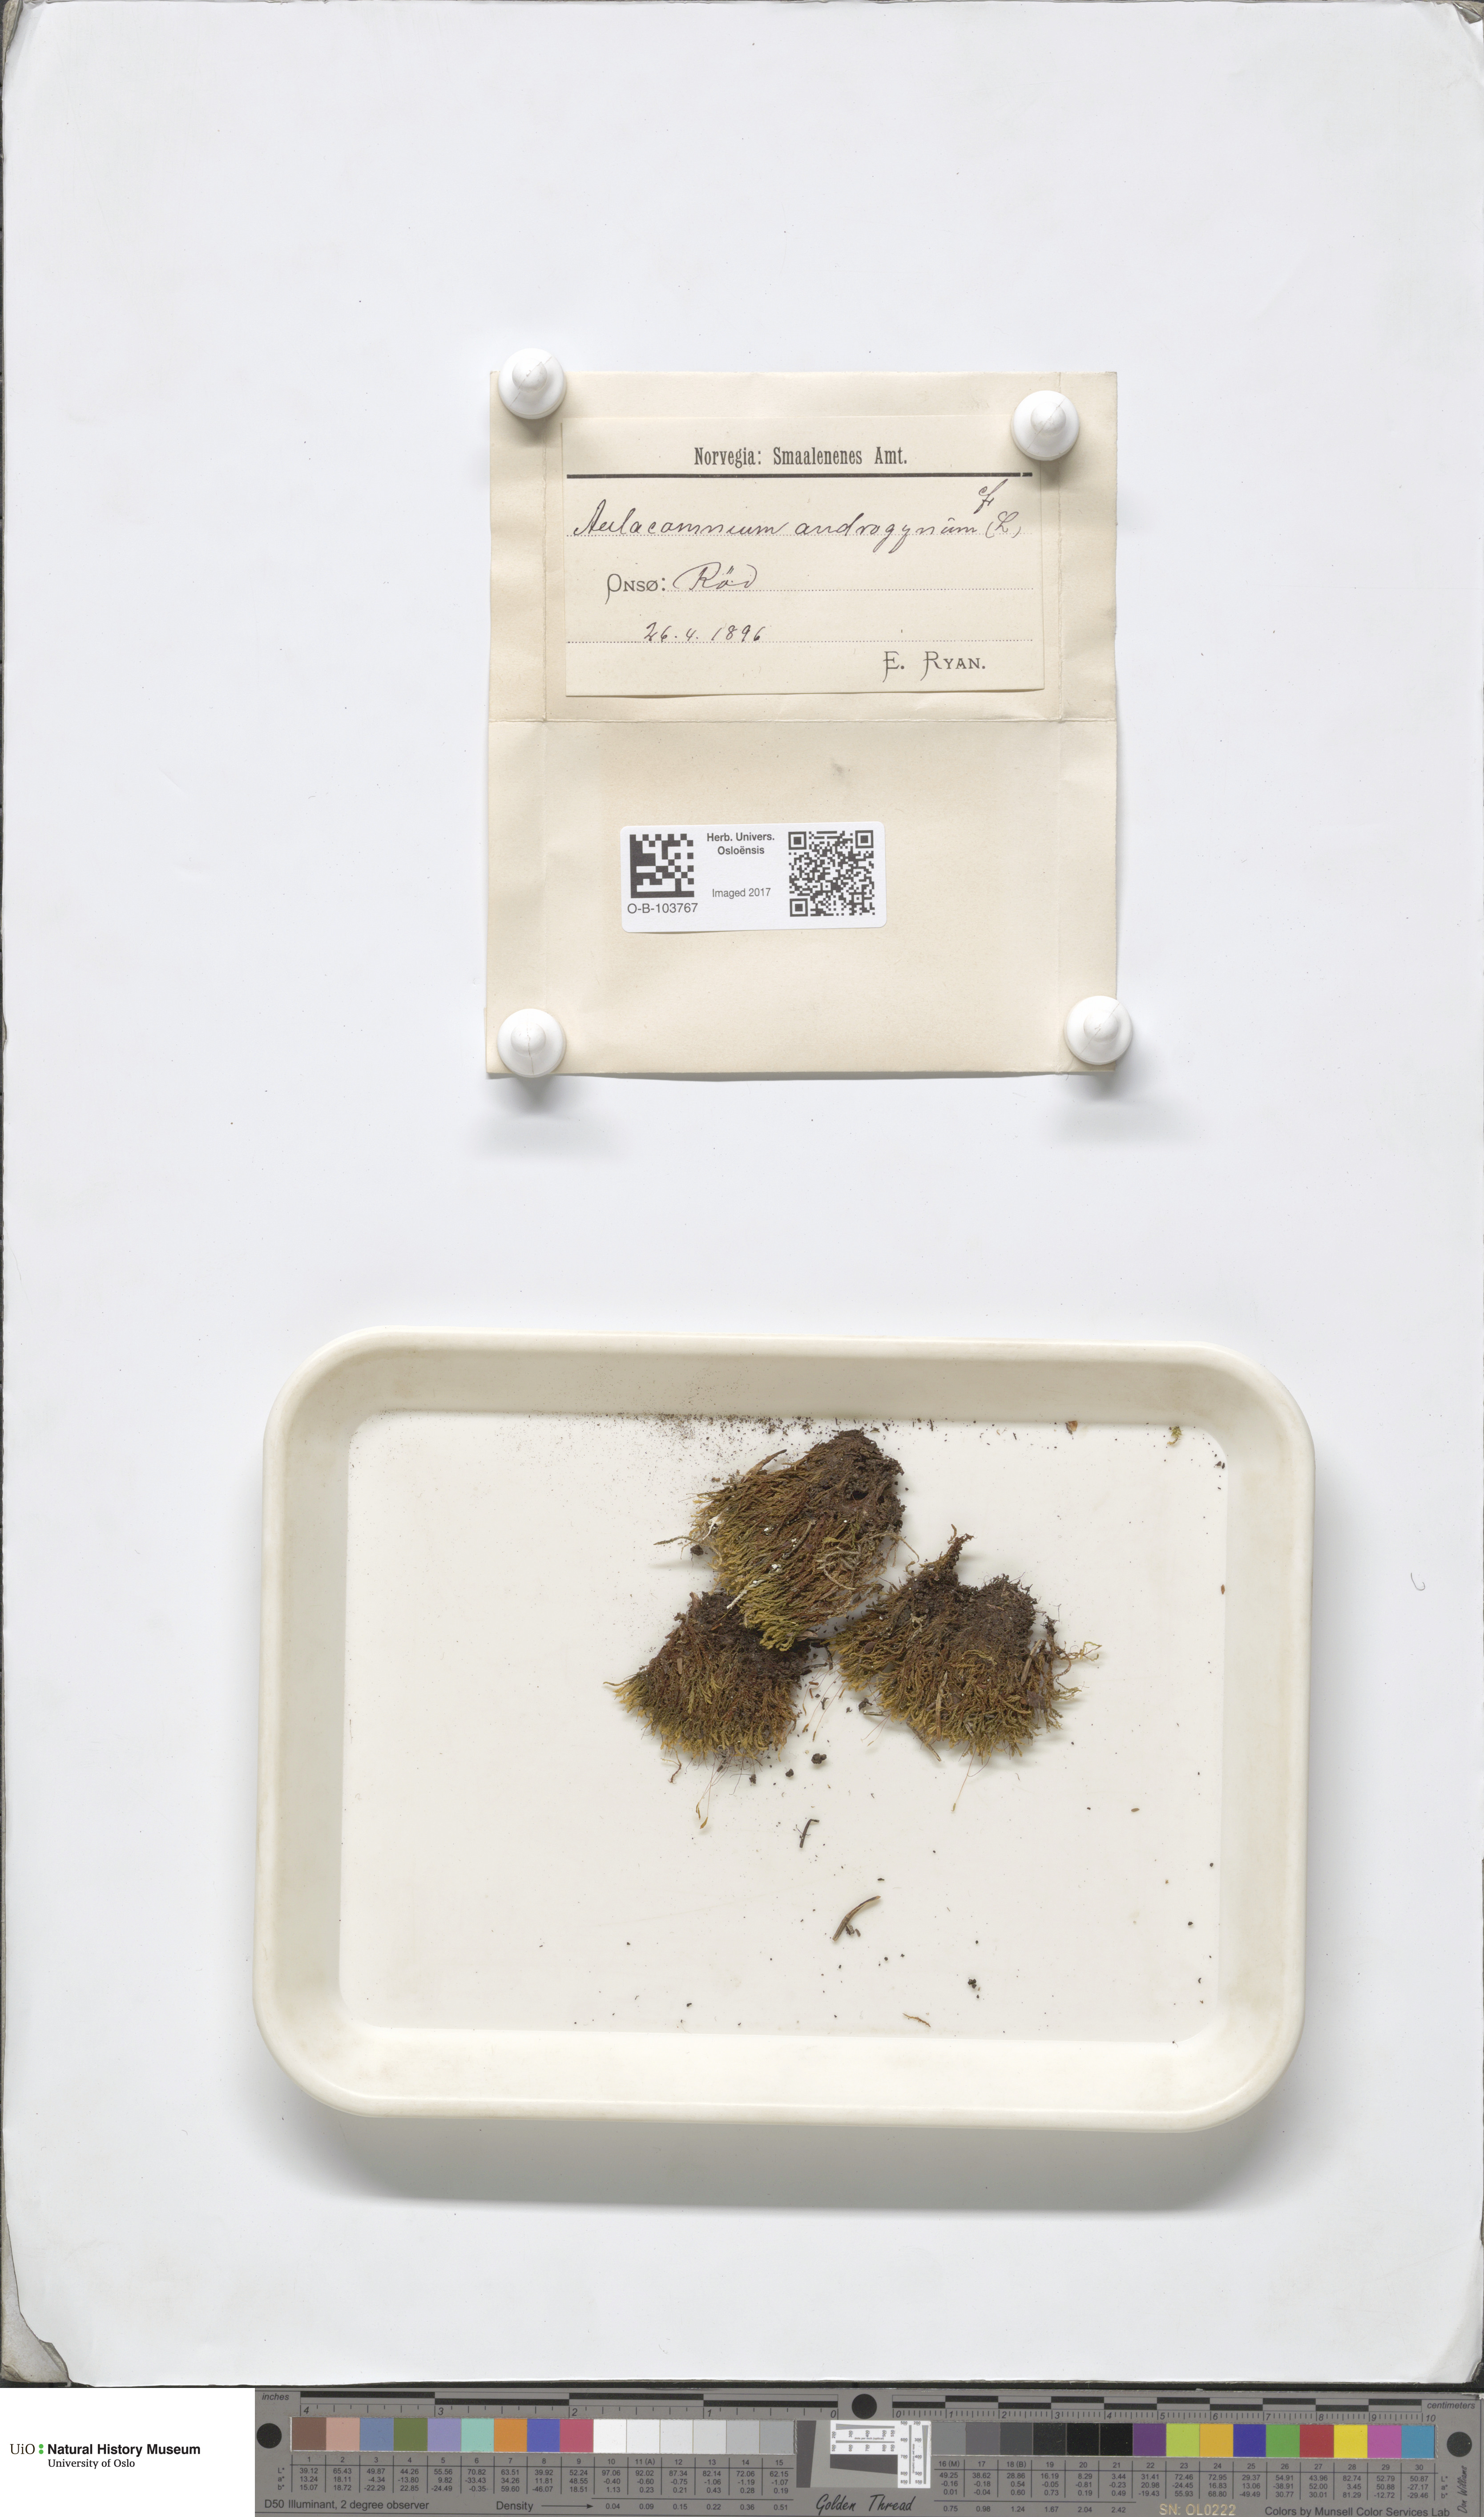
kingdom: Plantae
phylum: Bryophyta
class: Bryopsida
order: Aulacomniales
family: Aulacomniaceae
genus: Aulacomnium
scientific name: Aulacomnium androgynum
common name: Little groove moss
